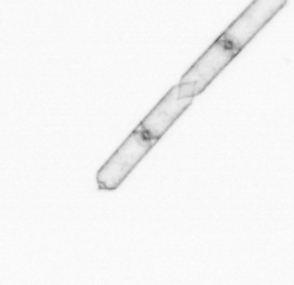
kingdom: Chromista
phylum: Ochrophyta
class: Bacillariophyceae
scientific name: Bacillariophyceae
